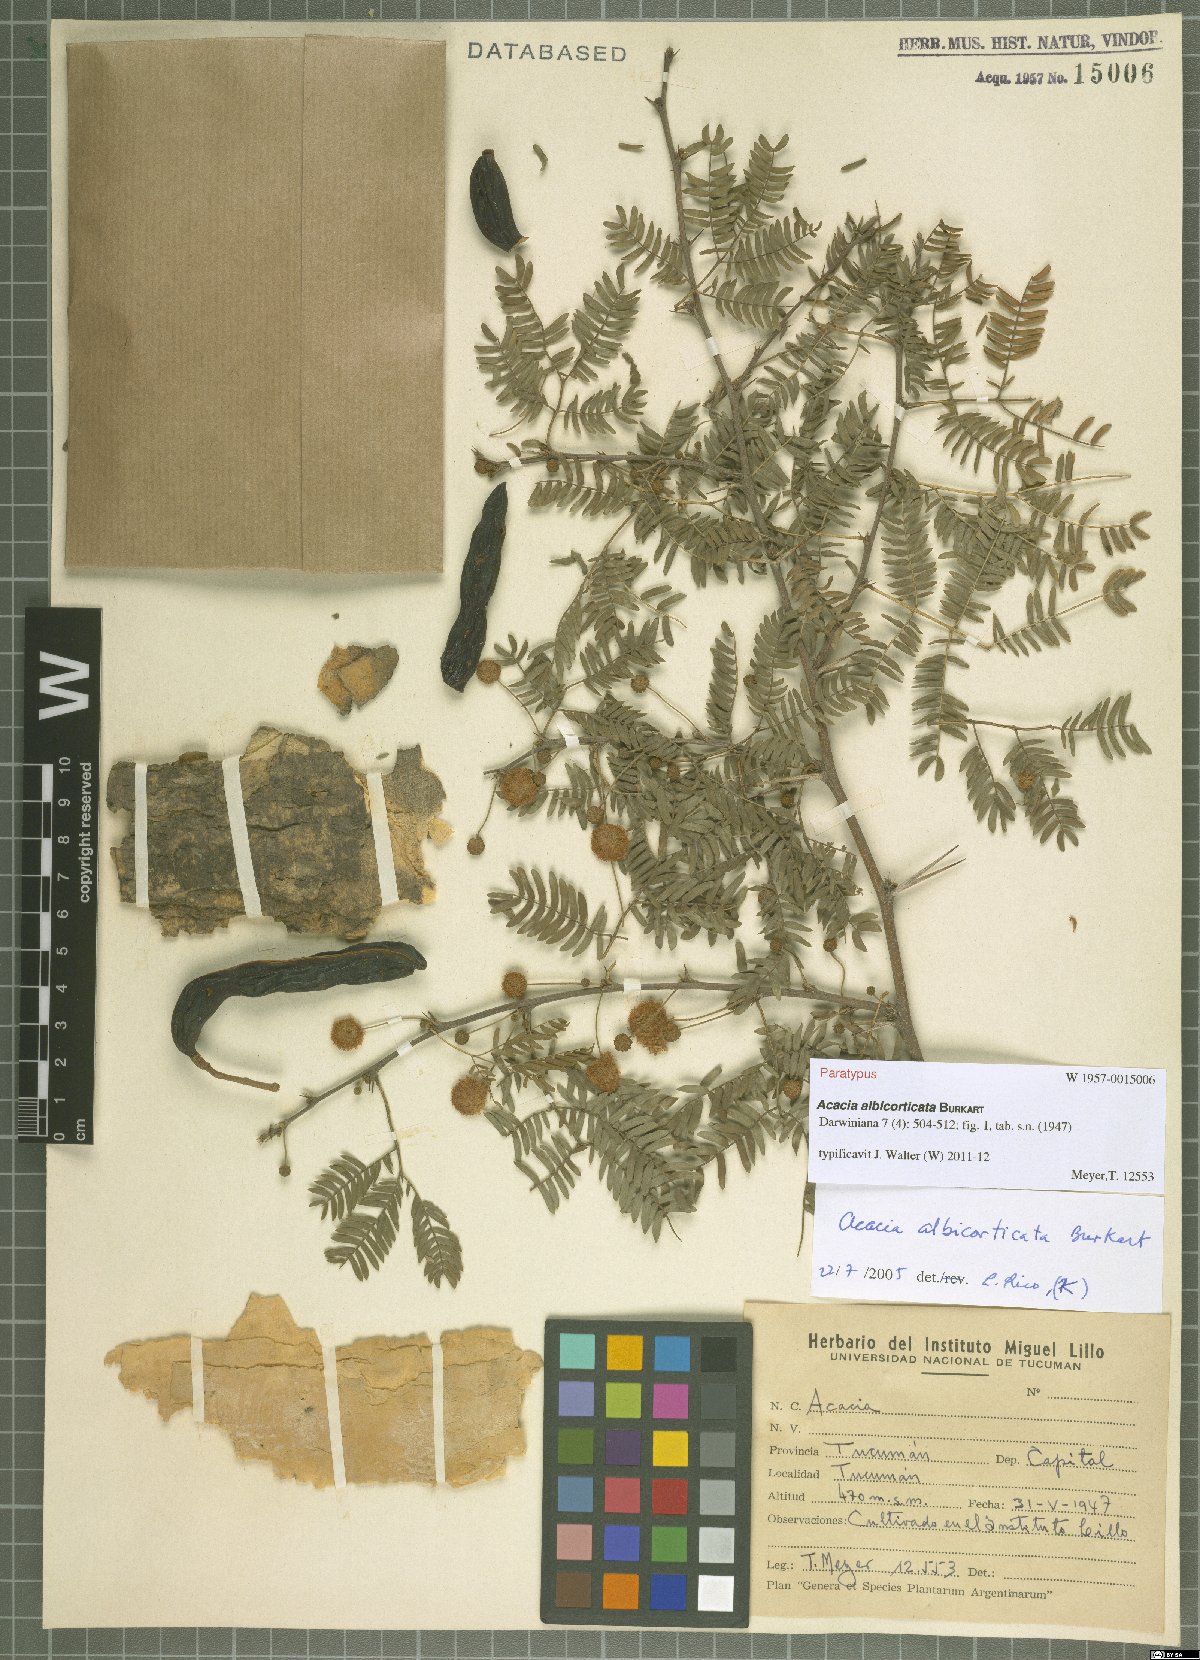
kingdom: Plantae
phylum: Tracheophyta
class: Magnoliopsida
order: Fabales
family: Fabaceae
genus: Vachellia
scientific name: Vachellia albicorticata
